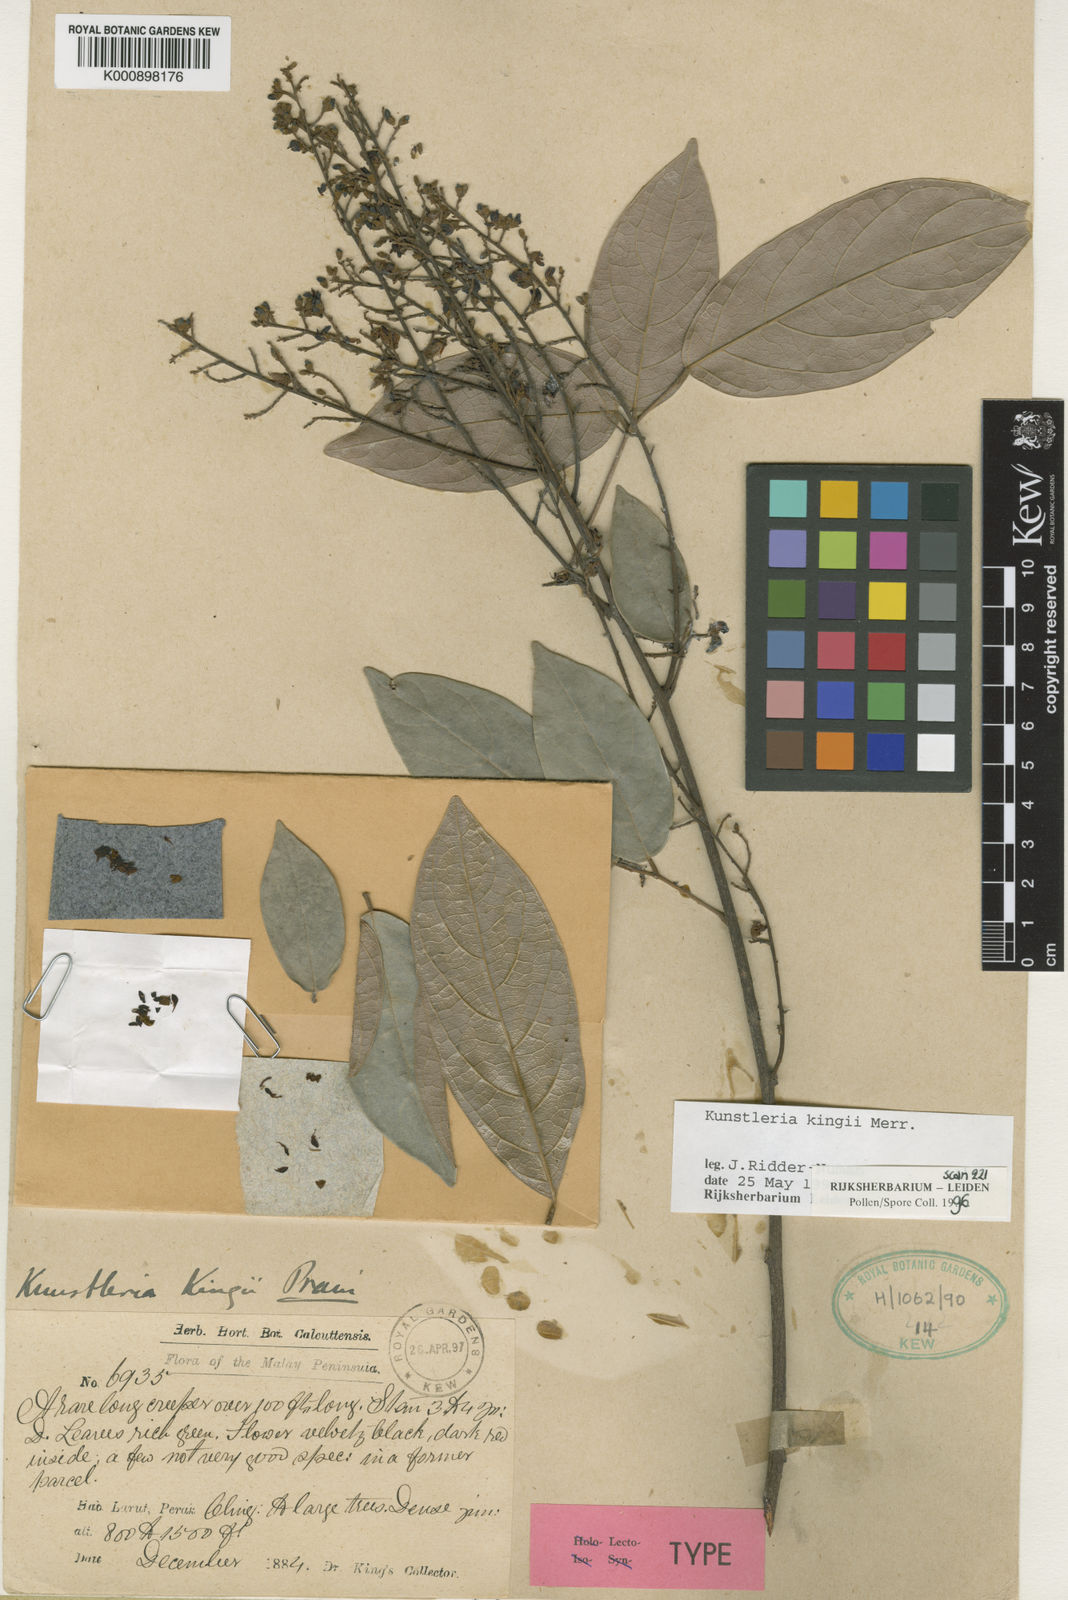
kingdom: Plantae
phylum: Tracheophyta
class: Magnoliopsida
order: Fabales
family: Fabaceae
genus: Kunstleria
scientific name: Kunstleria kingii
